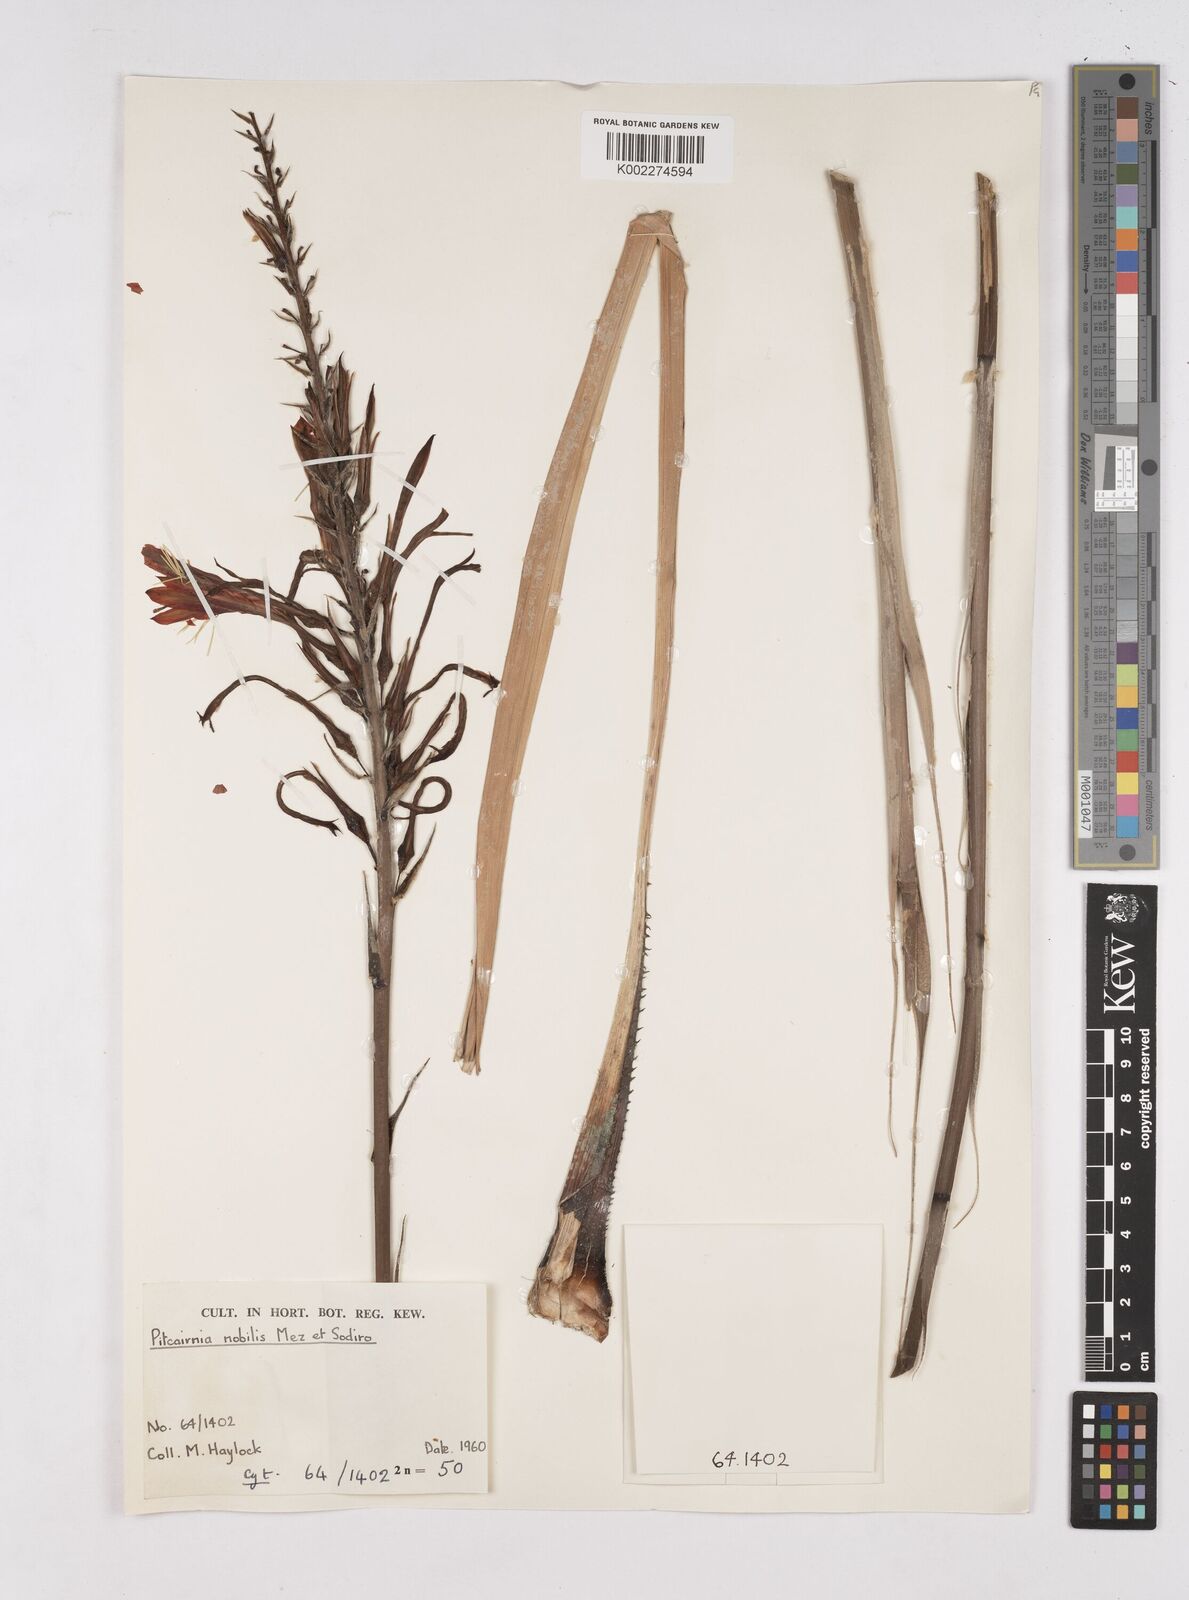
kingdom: Plantae
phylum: Tracheophyta
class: Liliopsida
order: Poales
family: Bromeliaceae
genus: Pitcairnia
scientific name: Pitcairnia nobilis
